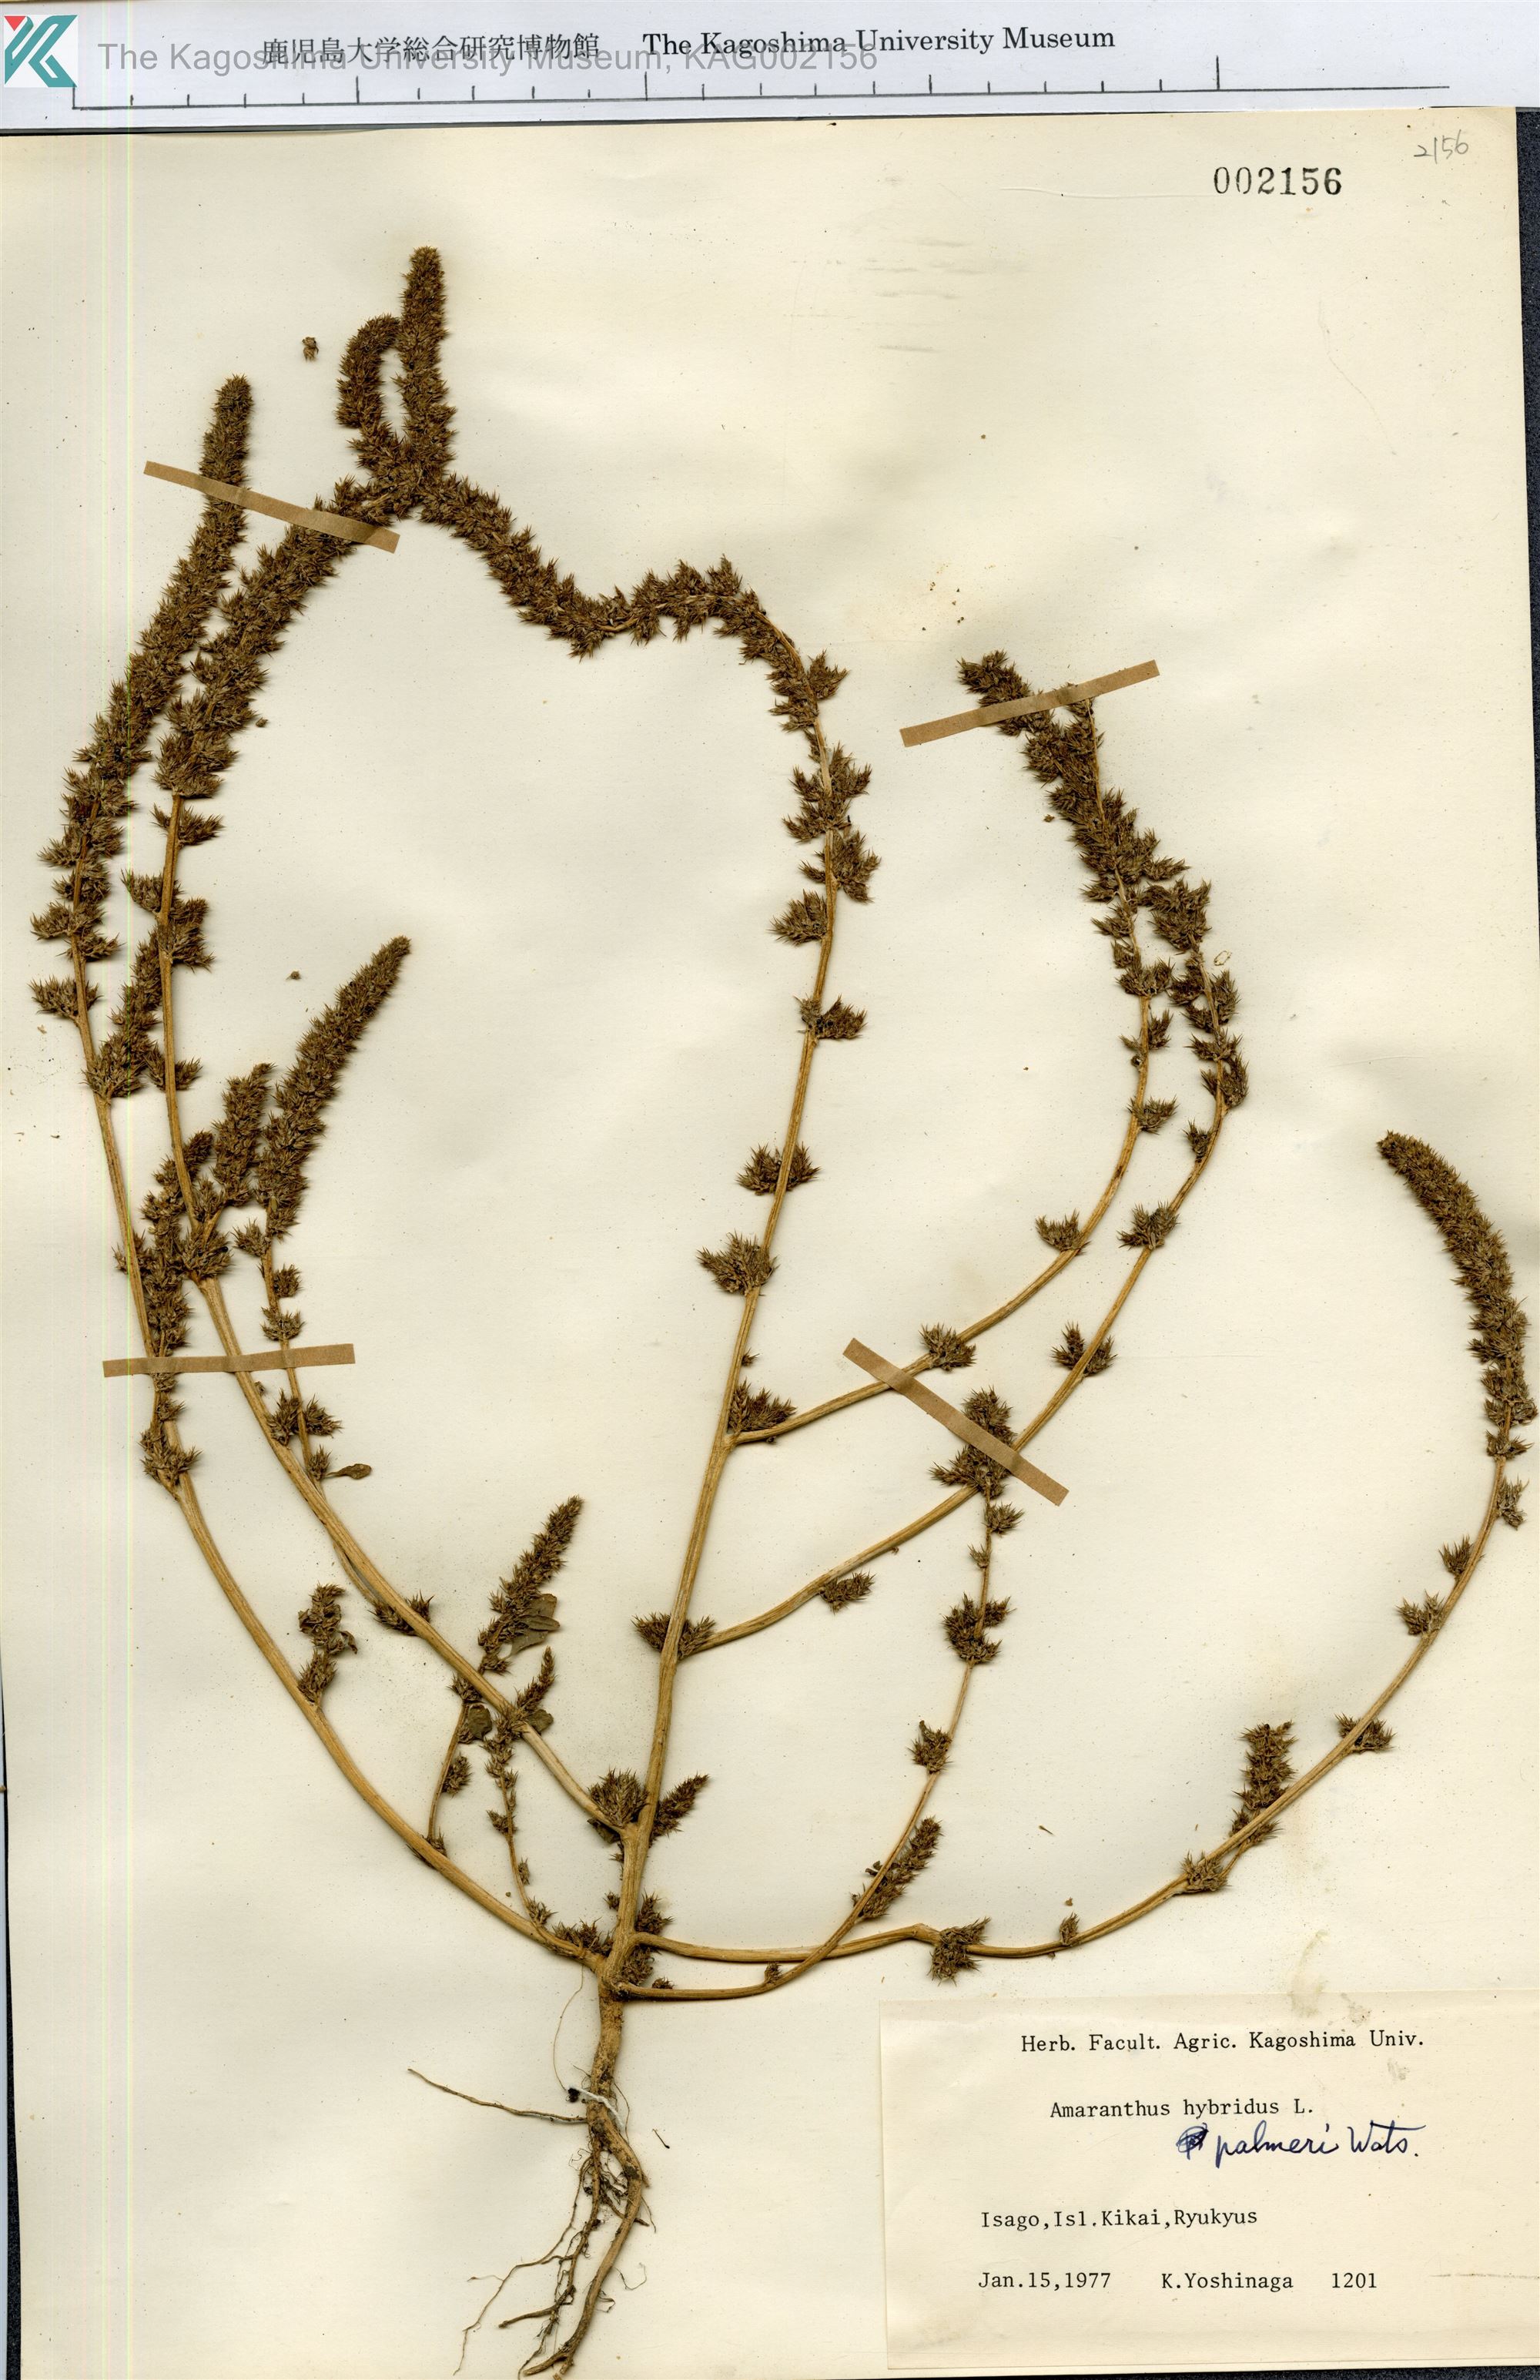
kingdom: Plantae
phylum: Tracheophyta
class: Magnoliopsida
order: Caryophyllales
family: Amaranthaceae
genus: Amaranthus
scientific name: Amaranthus palmeri
